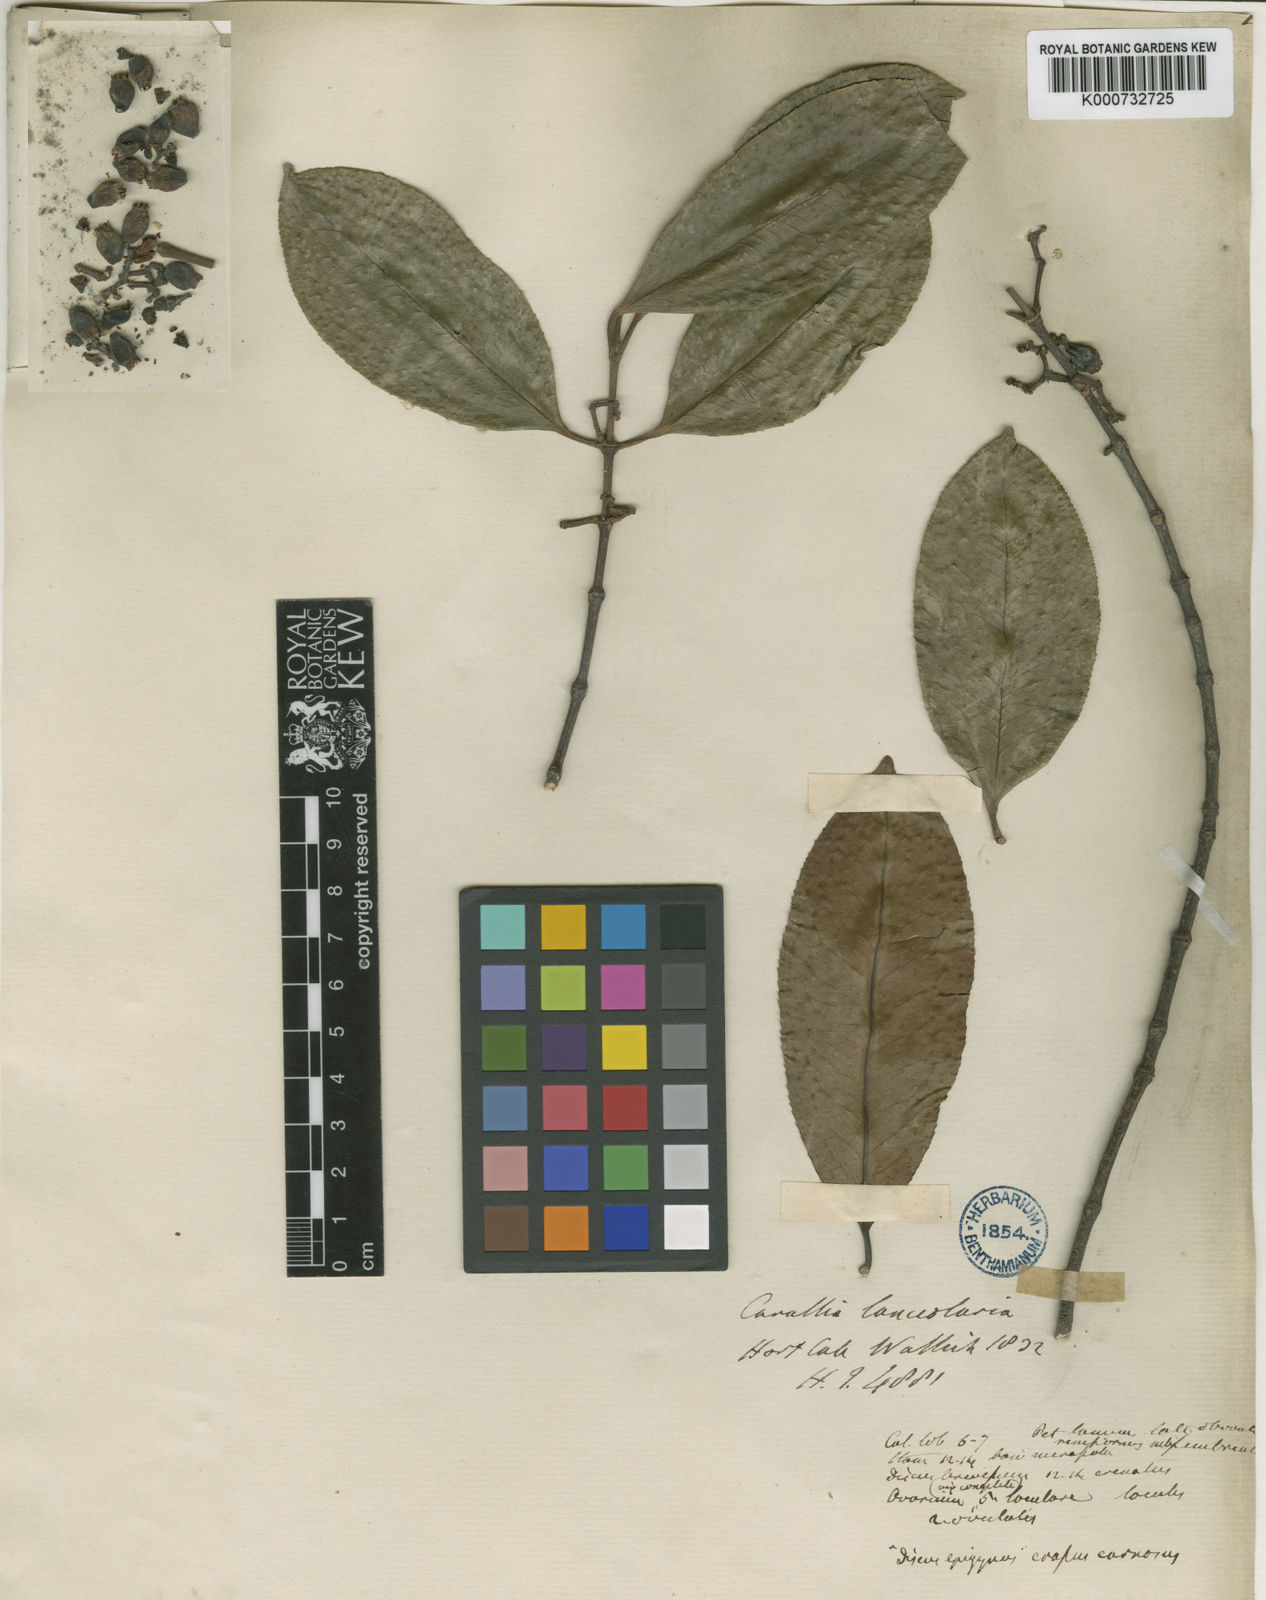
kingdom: Plantae
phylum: Tracheophyta
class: Magnoliopsida
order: Malpighiales
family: Rhizophoraceae
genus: Carallia
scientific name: Carallia brachiata
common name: Carallawood
